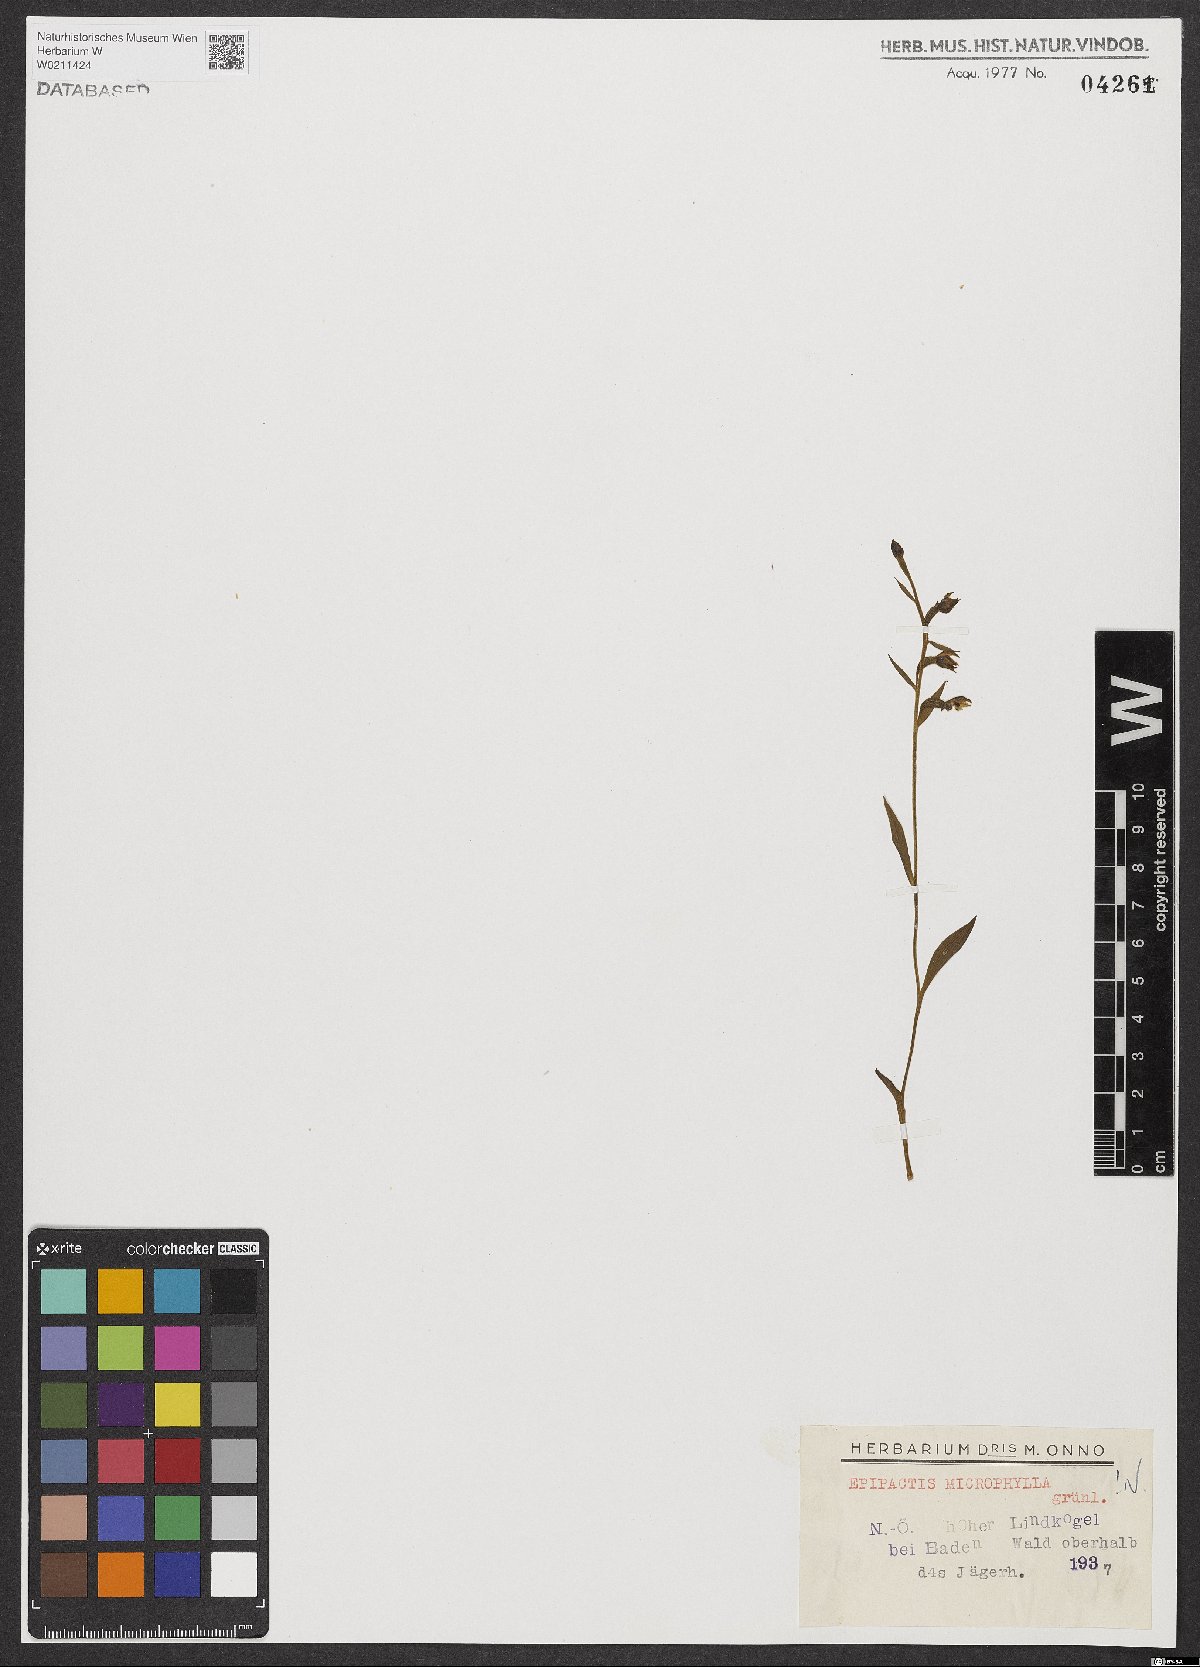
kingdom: Plantae
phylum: Tracheophyta
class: Liliopsida
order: Asparagales
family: Orchidaceae
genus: Epipactis
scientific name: Epipactis microphylla
